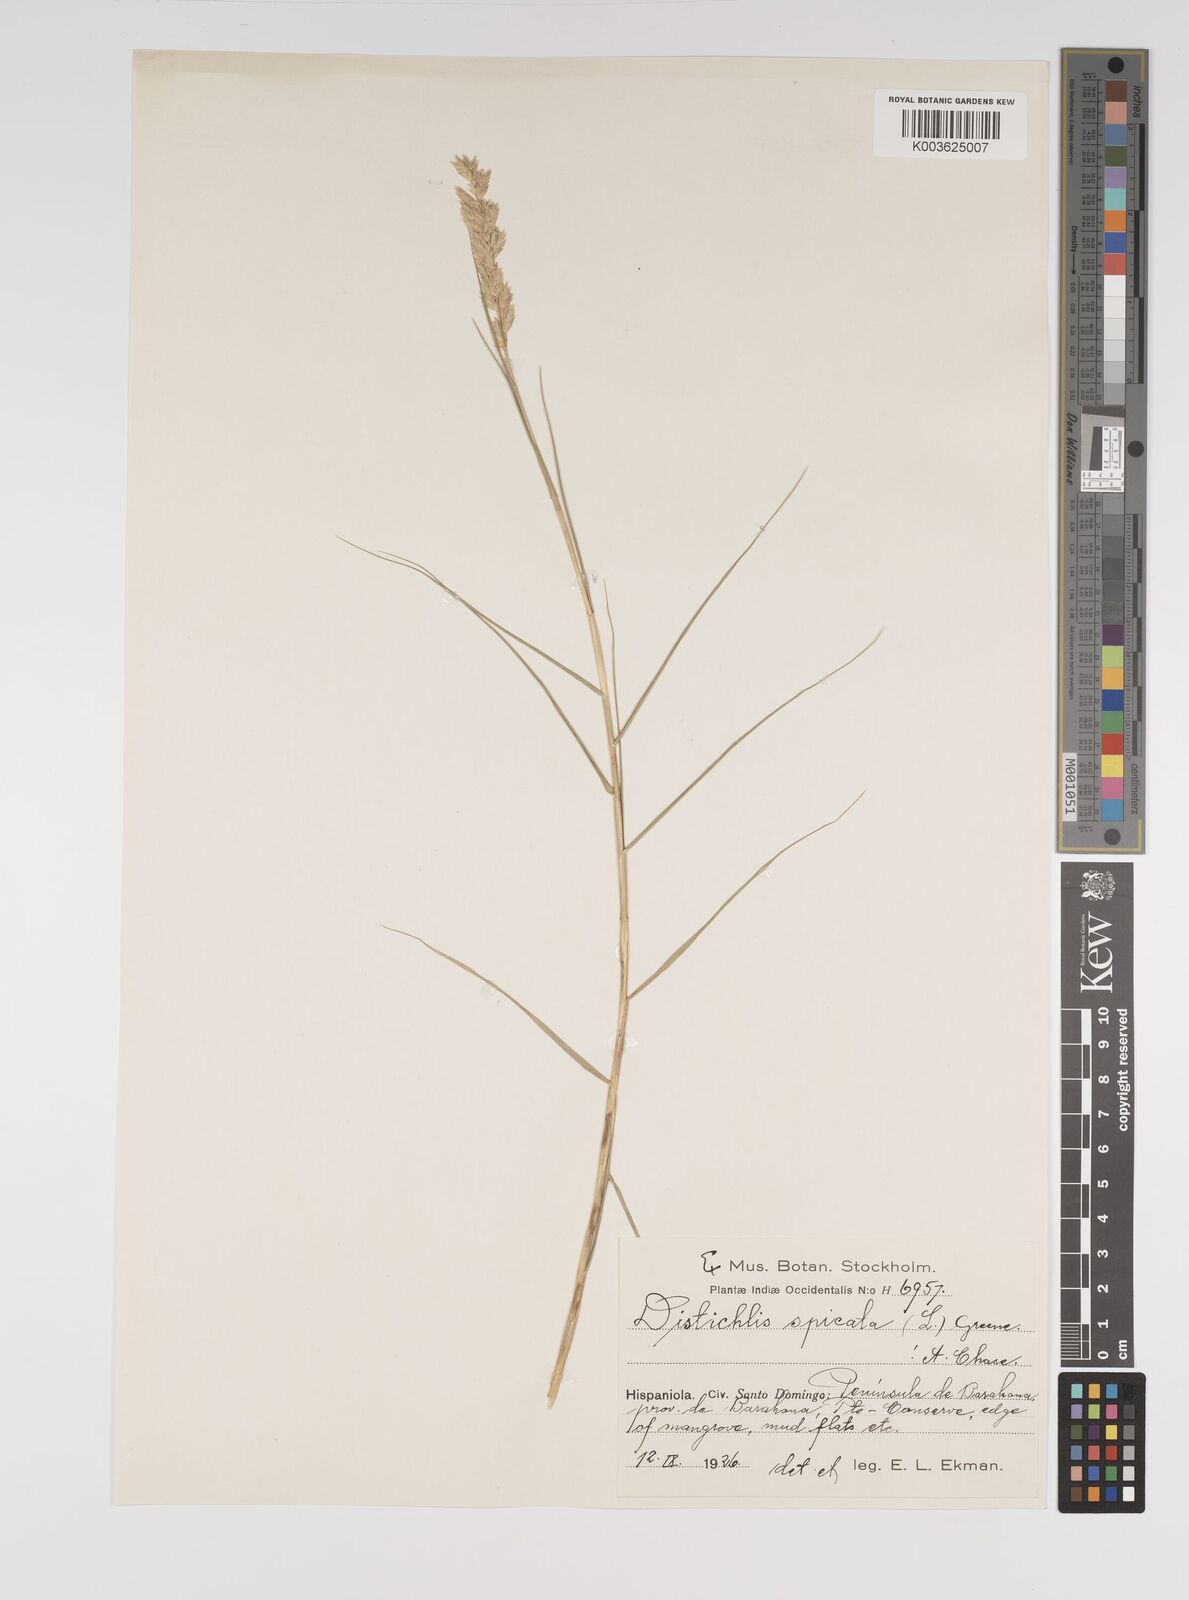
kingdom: Plantae
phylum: Tracheophyta
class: Liliopsida
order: Poales
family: Poaceae
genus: Distichlis
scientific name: Distichlis spicata
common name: Saltgrass
